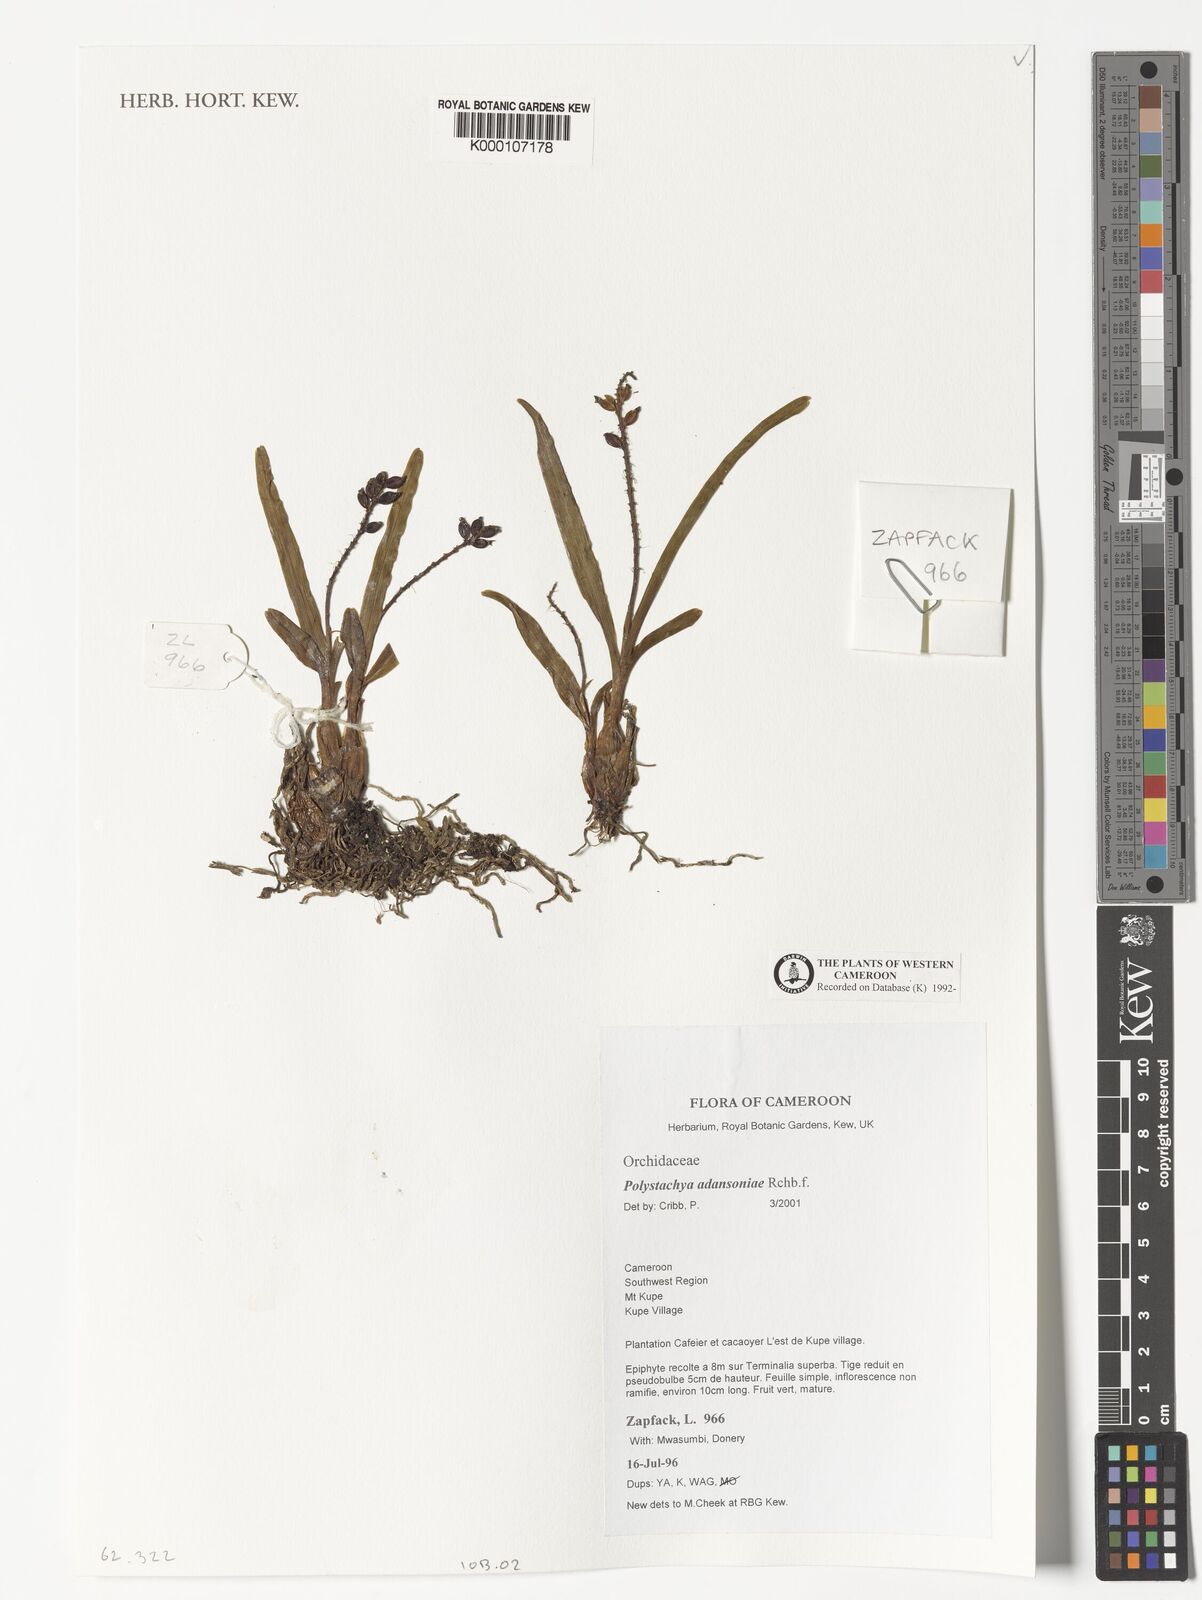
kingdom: Plantae
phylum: Tracheophyta
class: Liliopsida
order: Asparagales
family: Orchidaceae
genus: Polystachya
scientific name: Polystachya adansoniae
